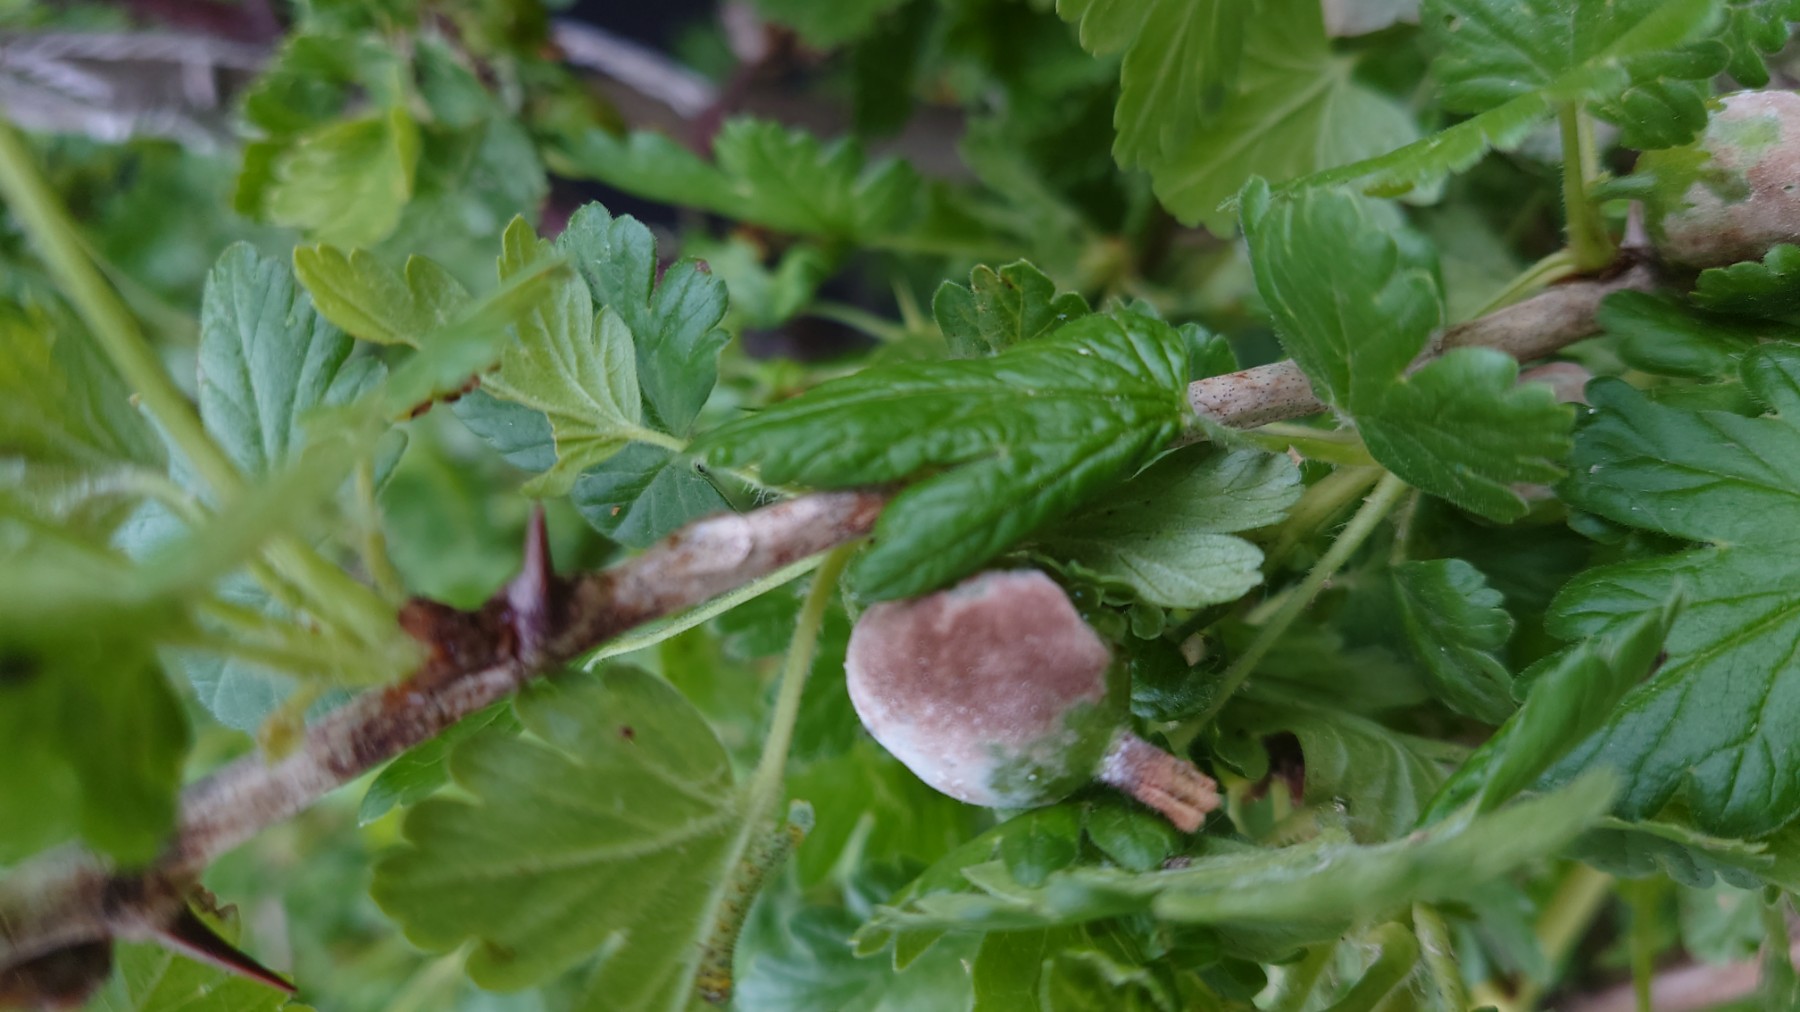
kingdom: Fungi
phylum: Ascomycota
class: Leotiomycetes
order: Helotiales
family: Erysiphaceae
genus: Podosphaera
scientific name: Podosphaera mors-uvae
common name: American gooseberry mildew
